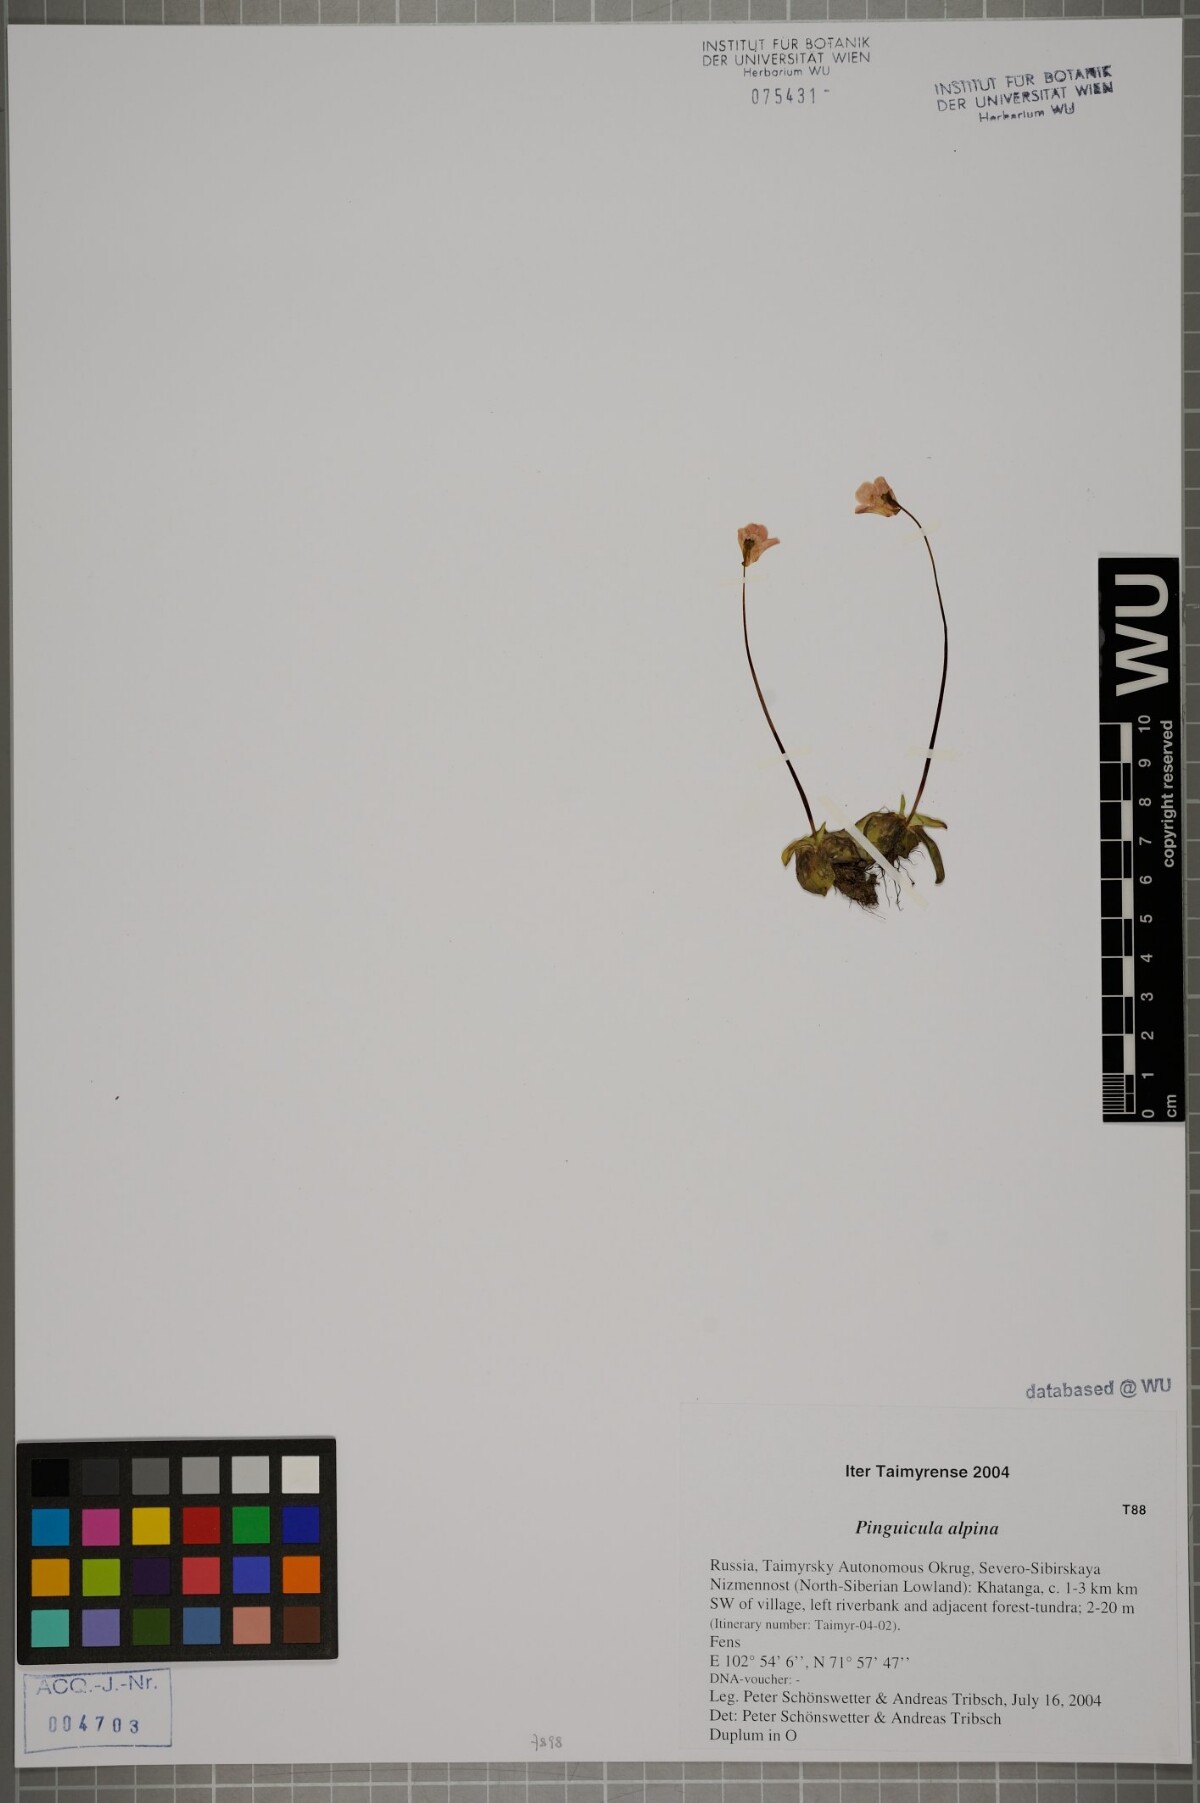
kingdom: Plantae
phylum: Tracheophyta
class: Magnoliopsida
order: Lamiales
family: Lentibulariaceae
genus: Pinguicula
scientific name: Pinguicula alpina
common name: Alpine butterwort
